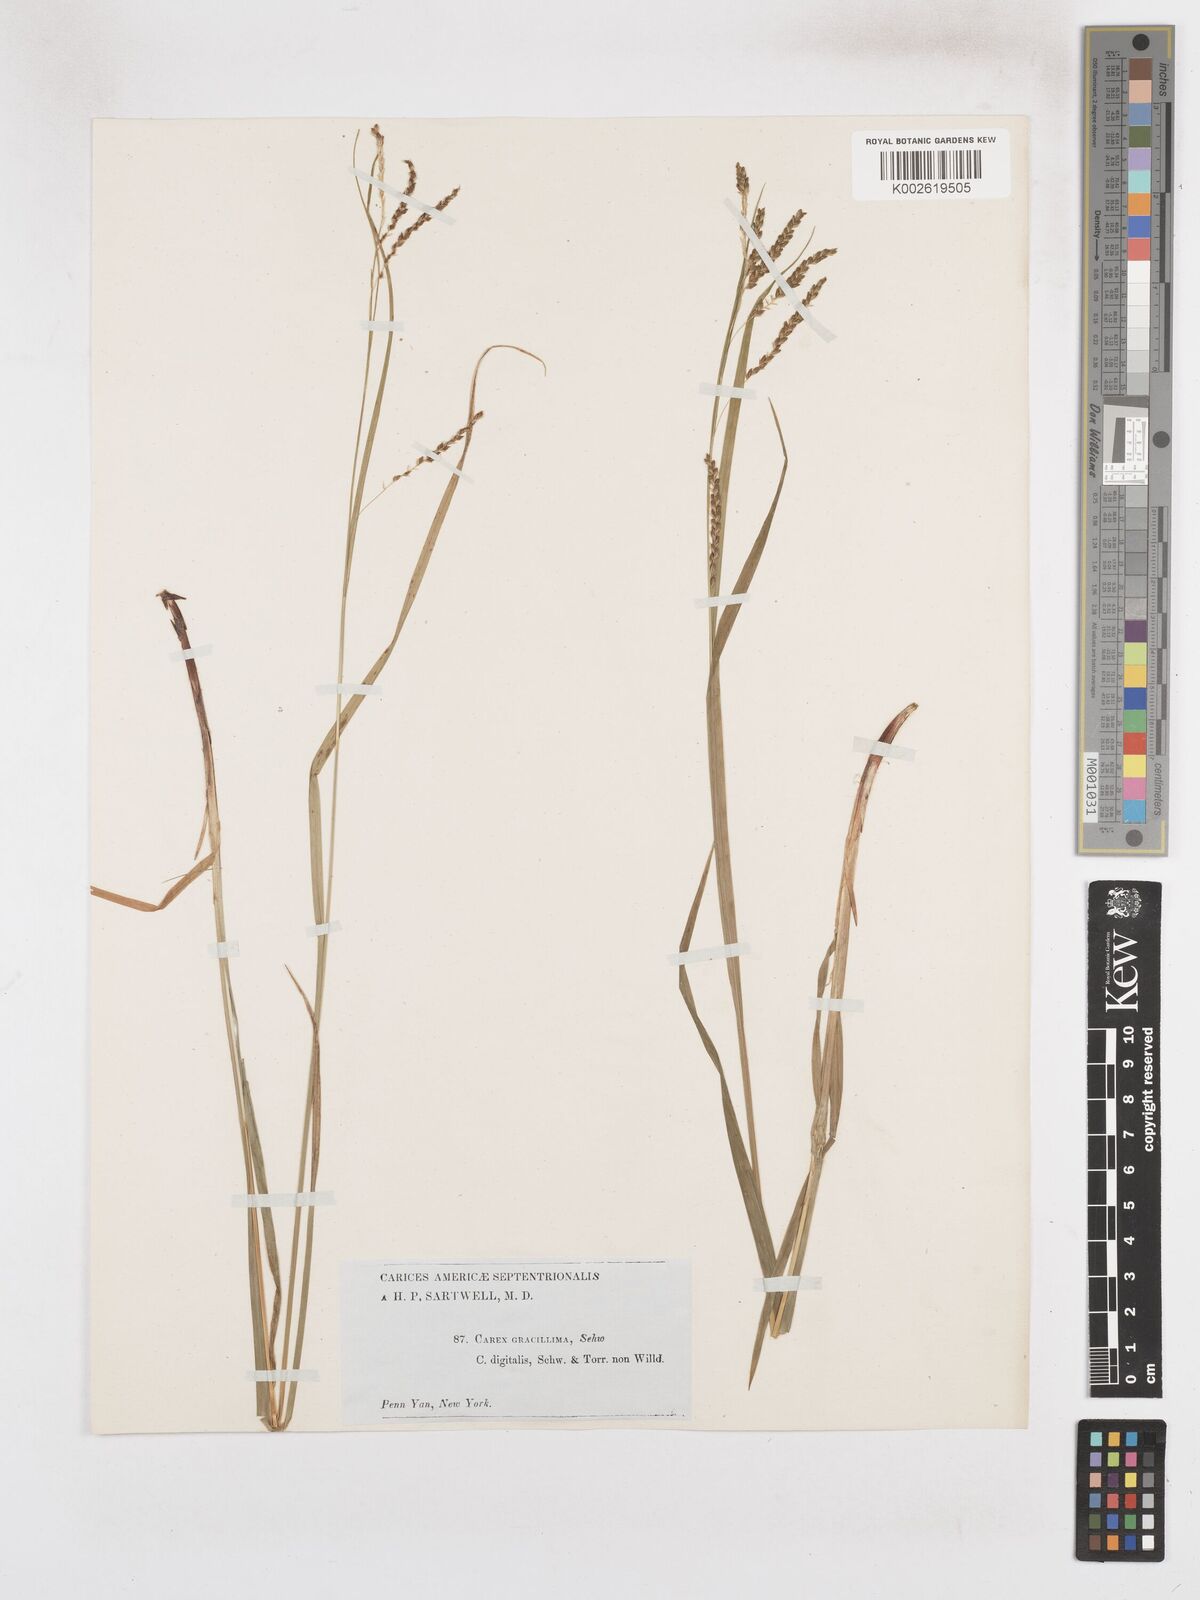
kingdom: Plantae
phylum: Tracheophyta
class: Liliopsida
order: Poales
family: Cyperaceae
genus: Carex
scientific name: Carex gracillima
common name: Graceful sedge
